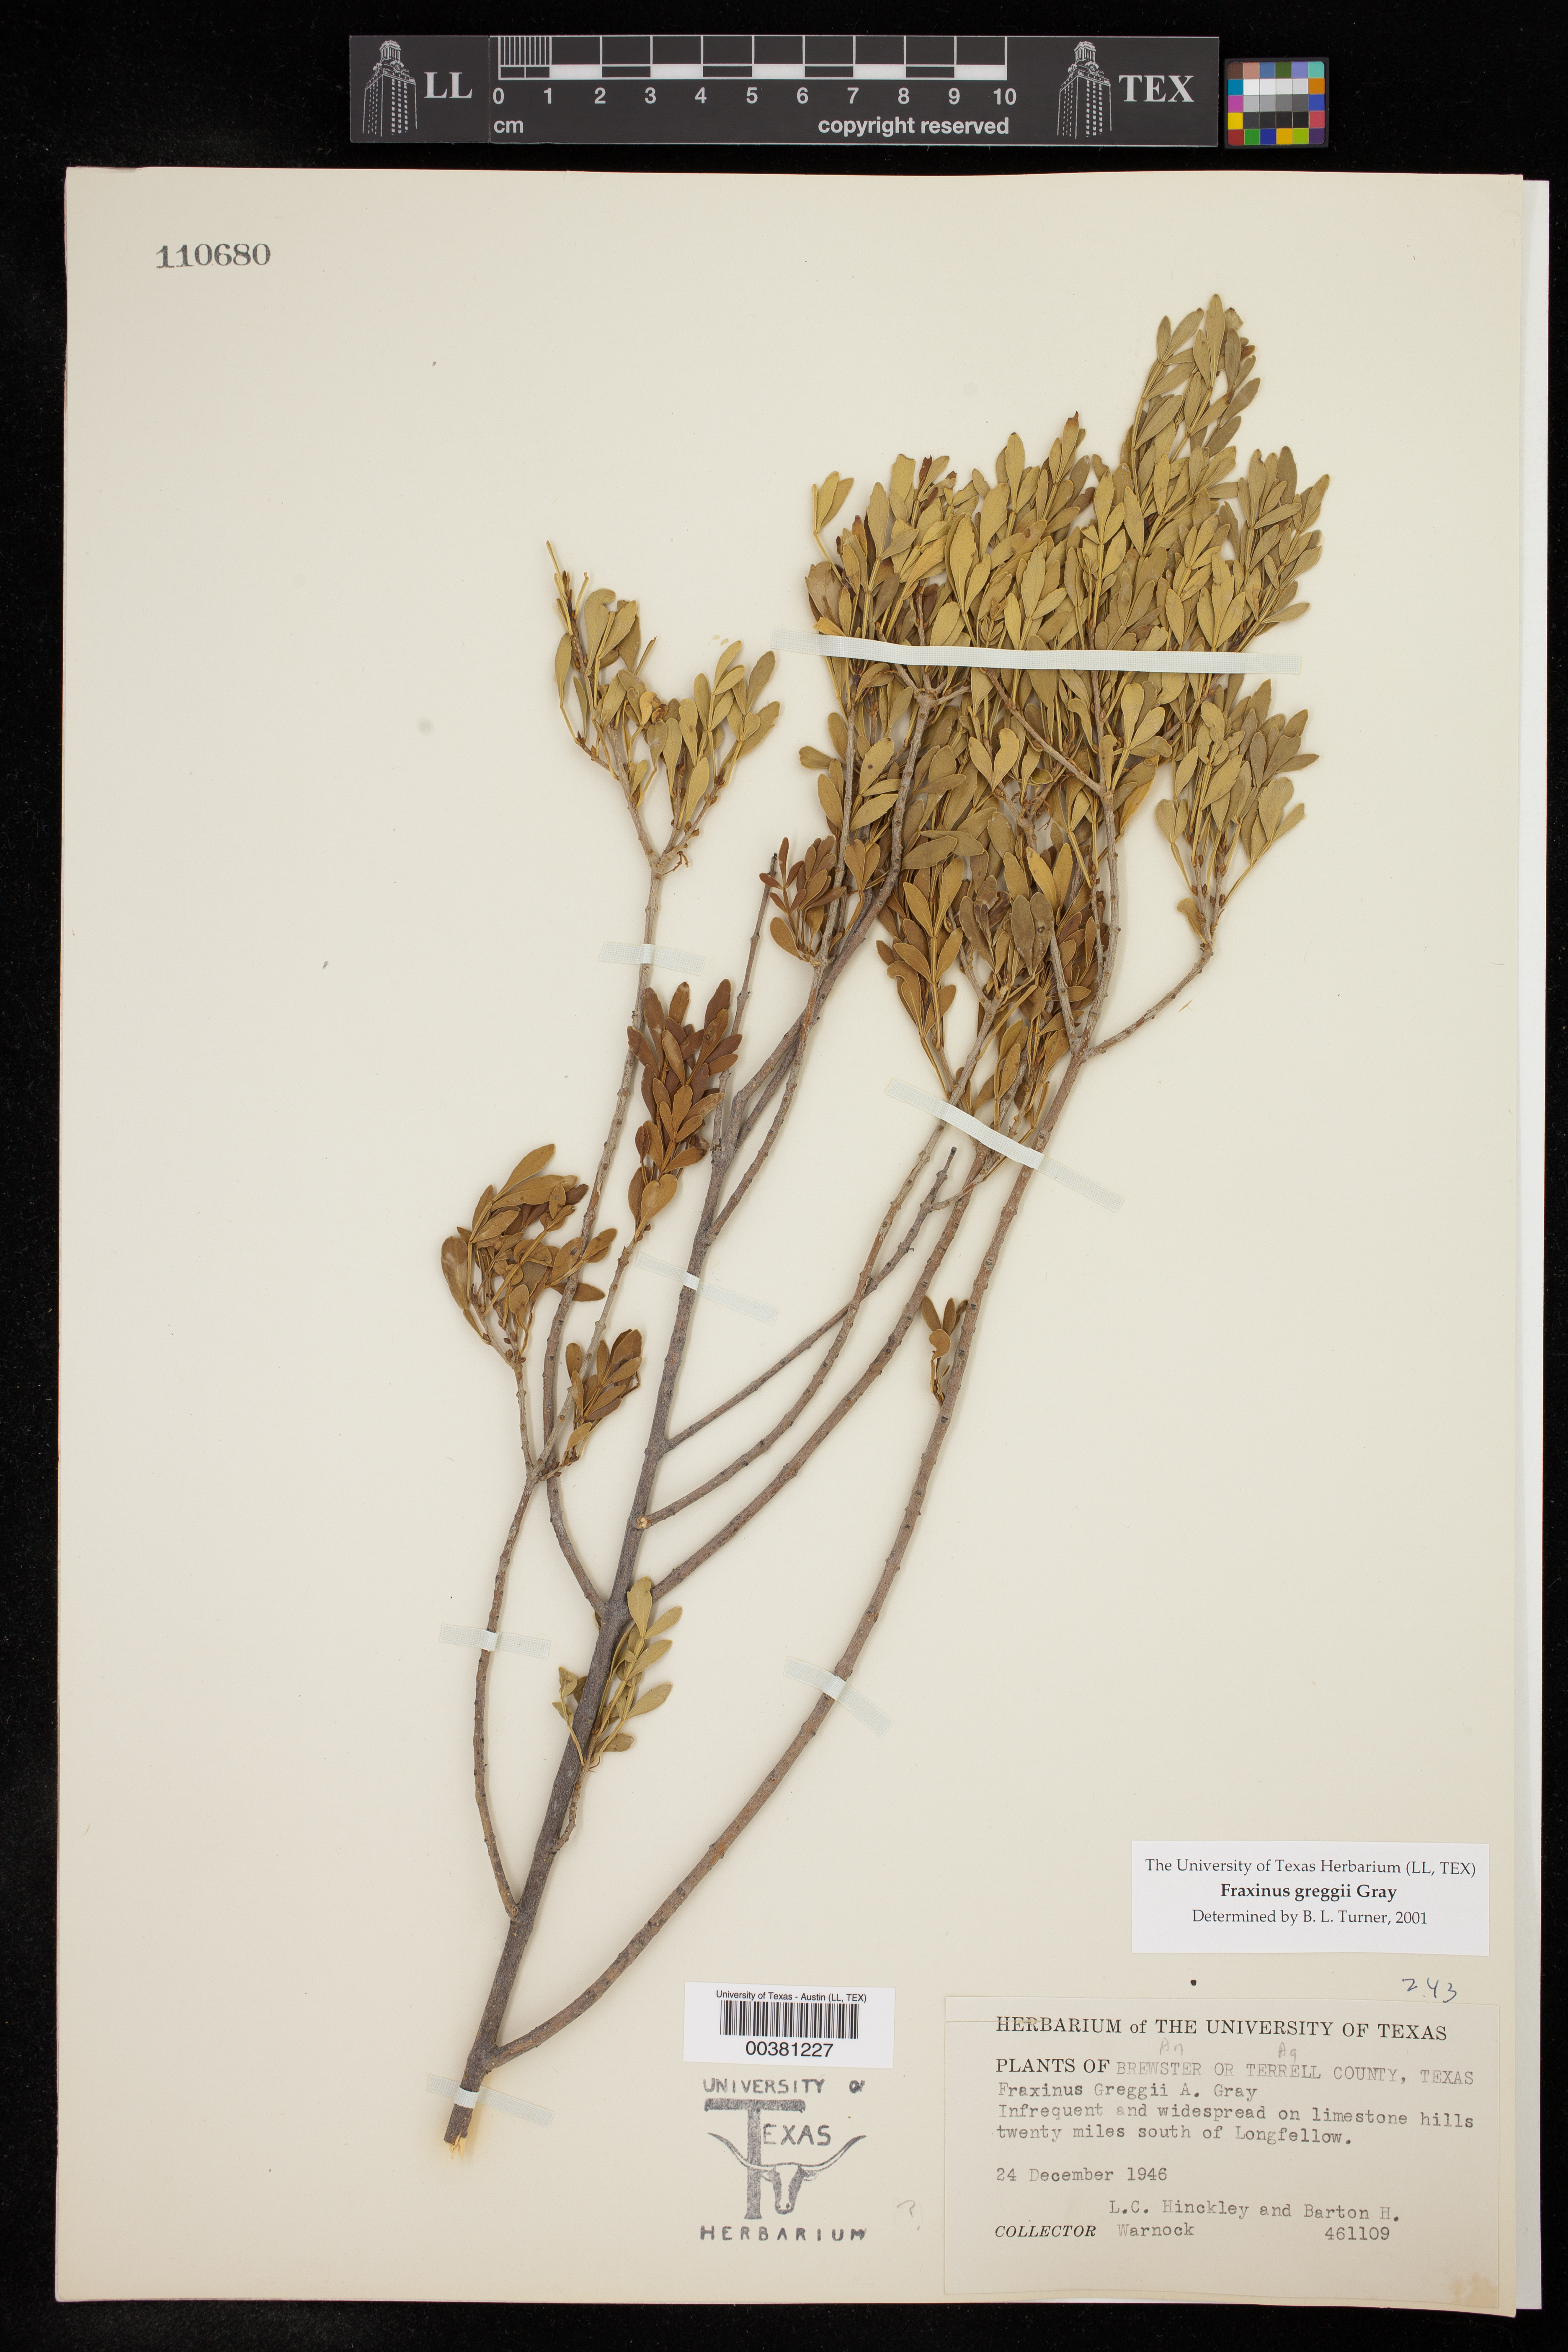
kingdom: Plantae
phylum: Tracheophyta
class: Magnoliopsida
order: Lamiales
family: Oleaceae
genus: Fraxinus
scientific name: Fraxinus greggii
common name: Gregg ash
